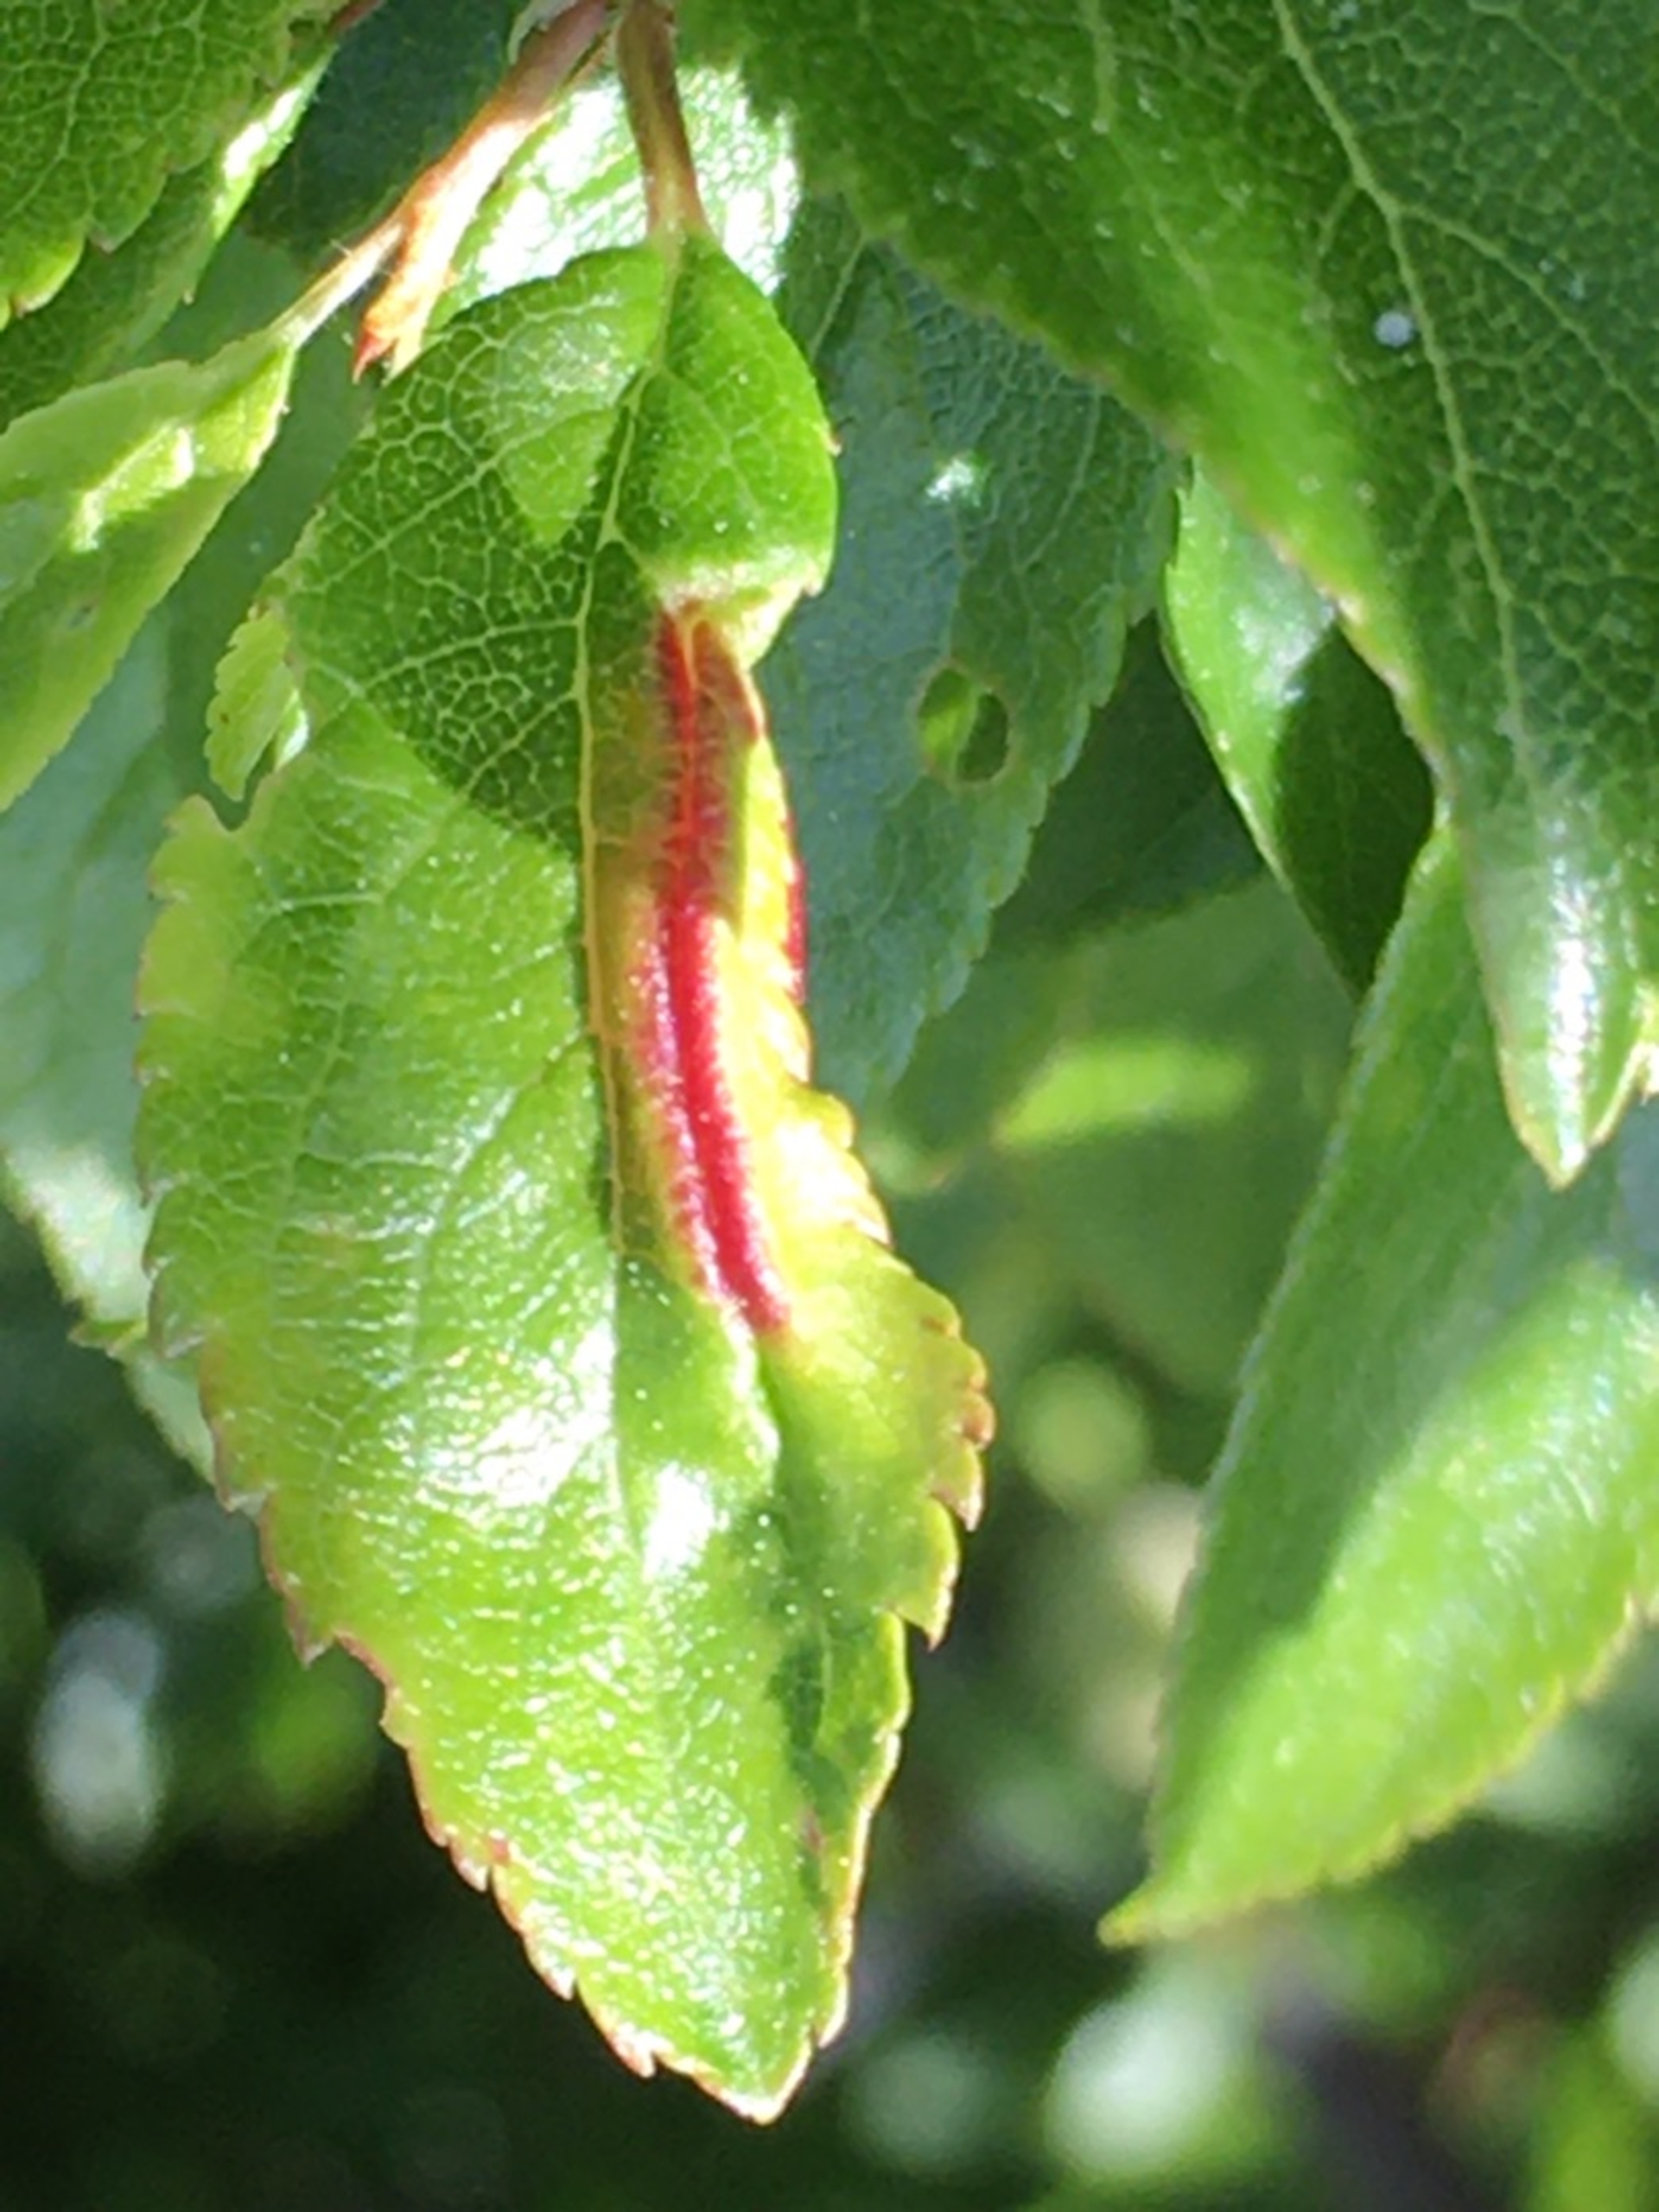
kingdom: Animalia
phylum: Arthropoda
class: Insecta
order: Diptera
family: Cecidomyiidae
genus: Putoniella
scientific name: Putoniella pruni
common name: Slåenvulstgalmyg
